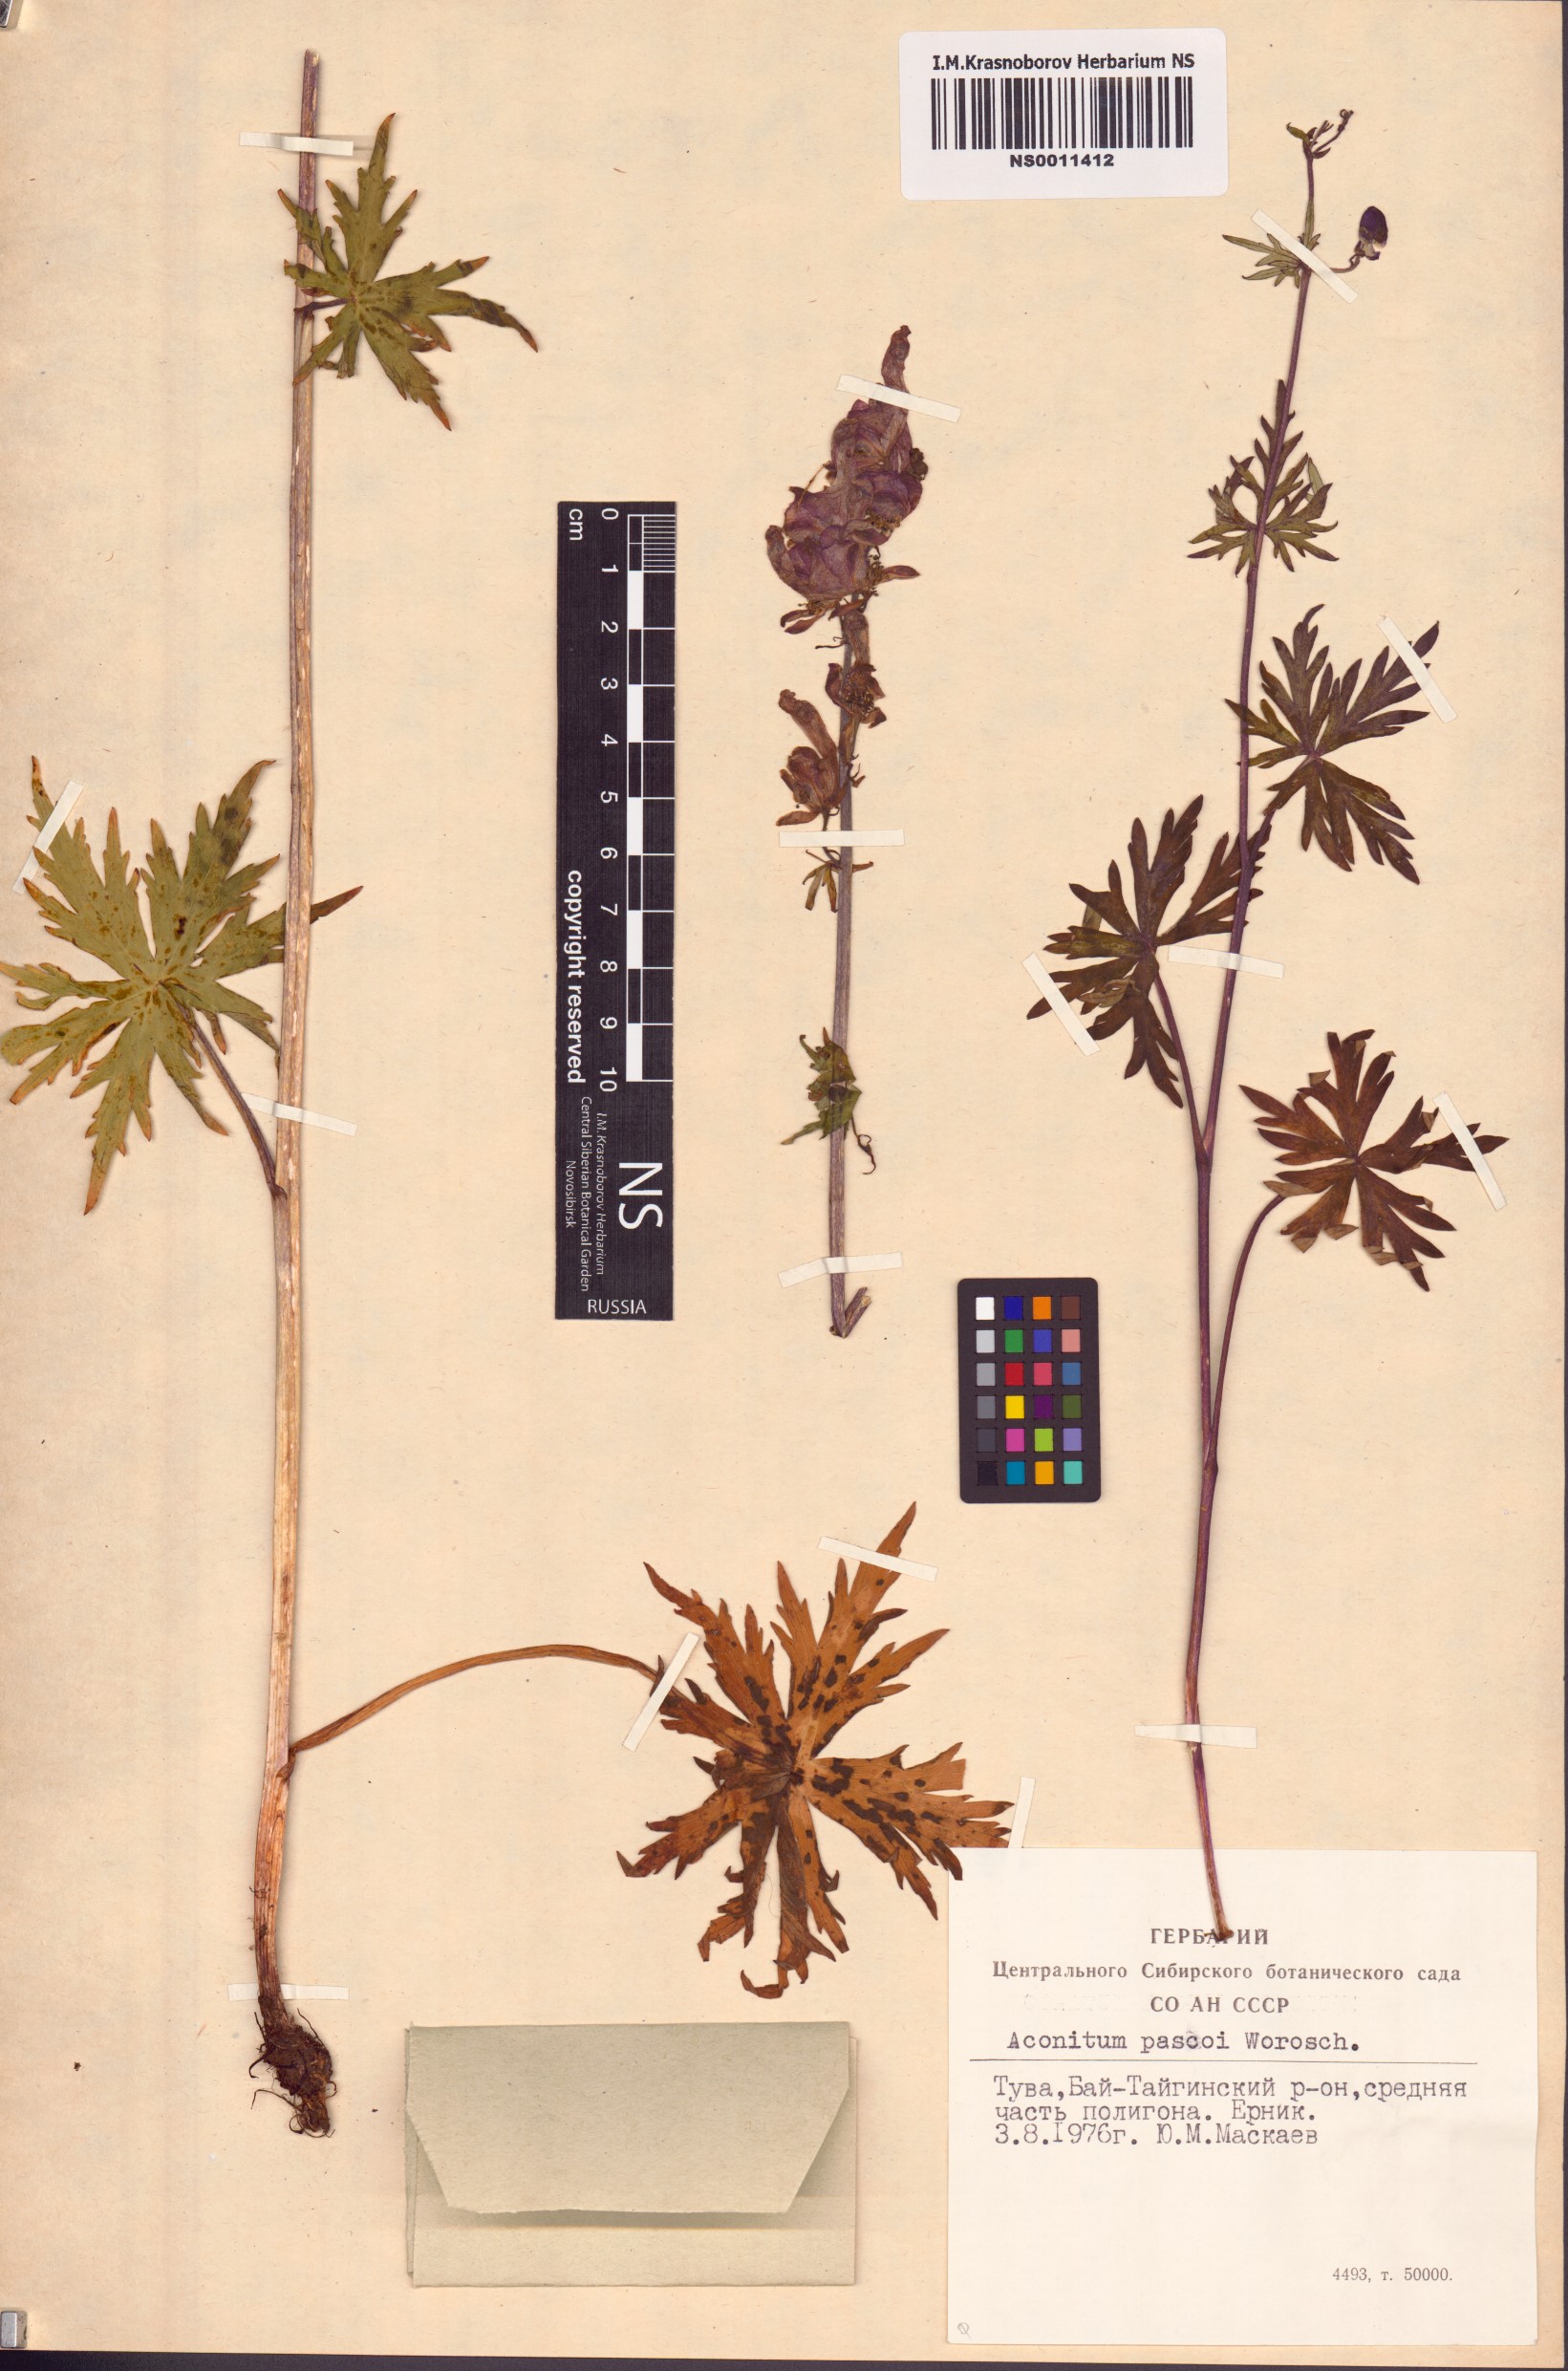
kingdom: Plantae
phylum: Tracheophyta
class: Magnoliopsida
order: Ranunculales
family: Ranunculaceae
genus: Aconitum
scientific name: Aconitum pascoi
